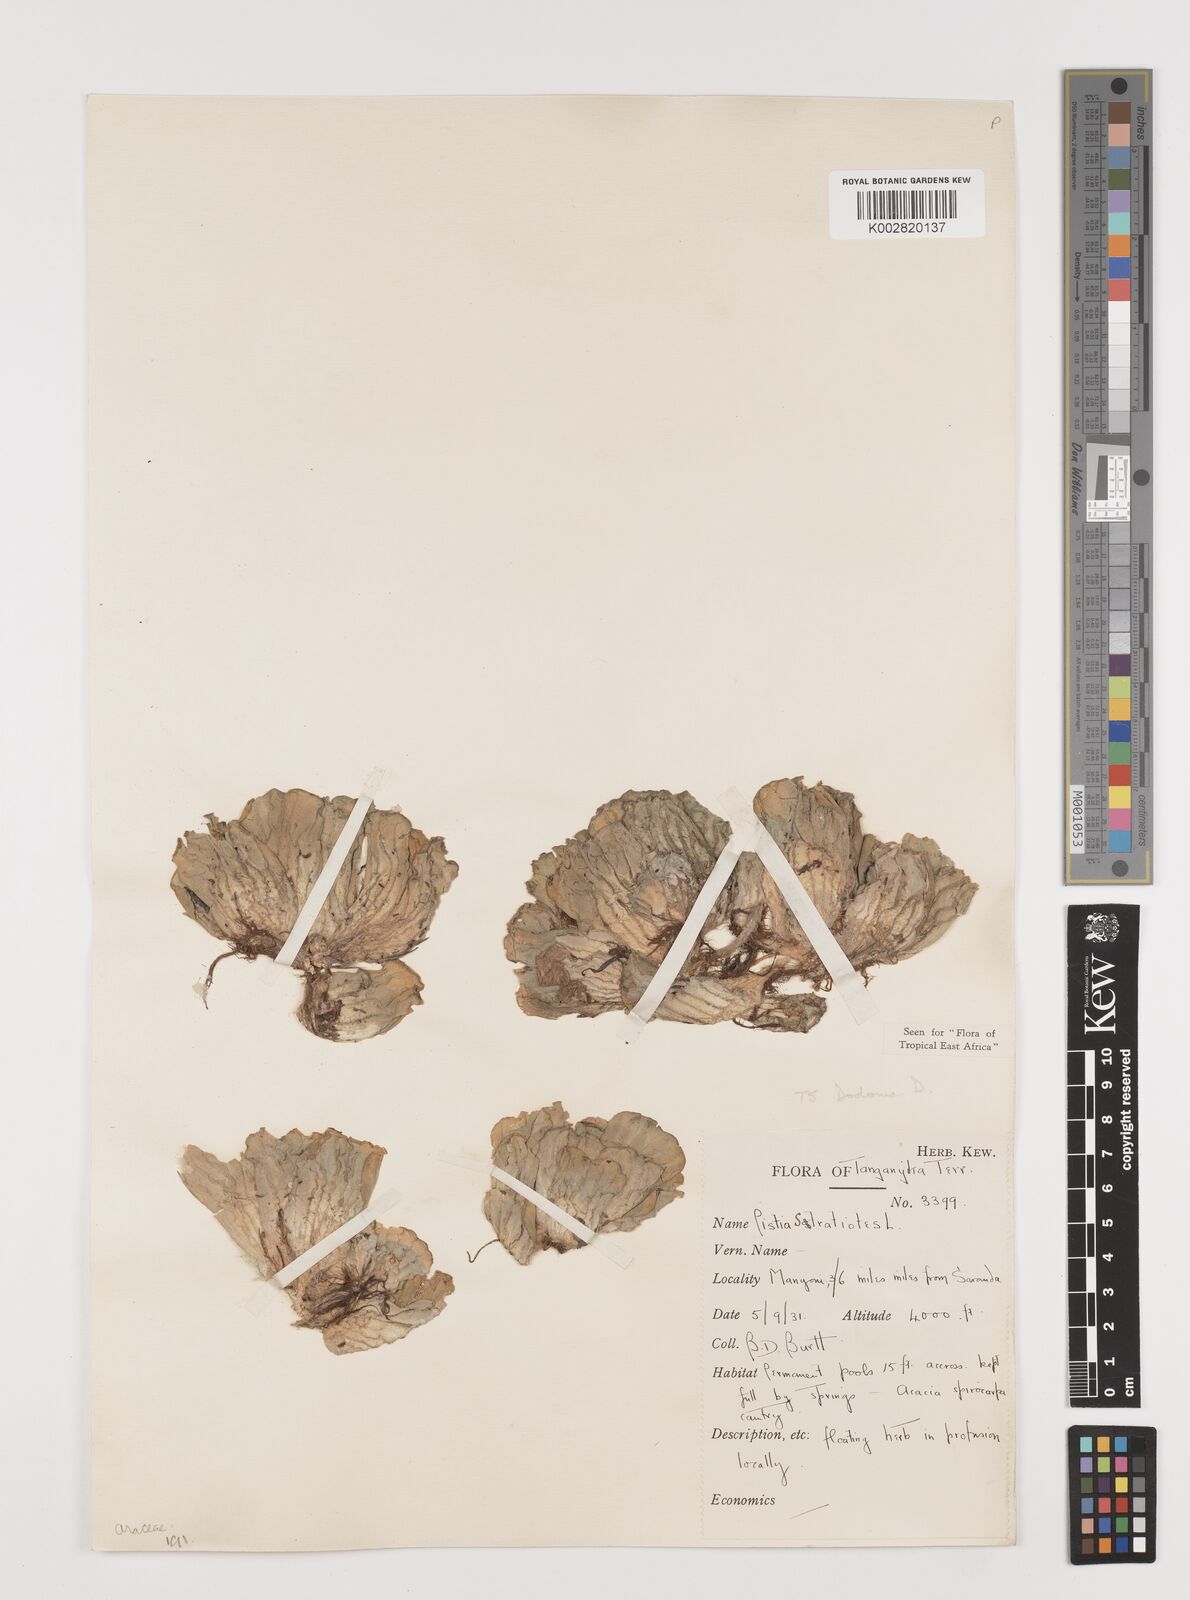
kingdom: Plantae
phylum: Tracheophyta
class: Liliopsida
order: Alismatales
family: Araceae
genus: Pistia
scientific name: Pistia stratiotes
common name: Water lettuce
